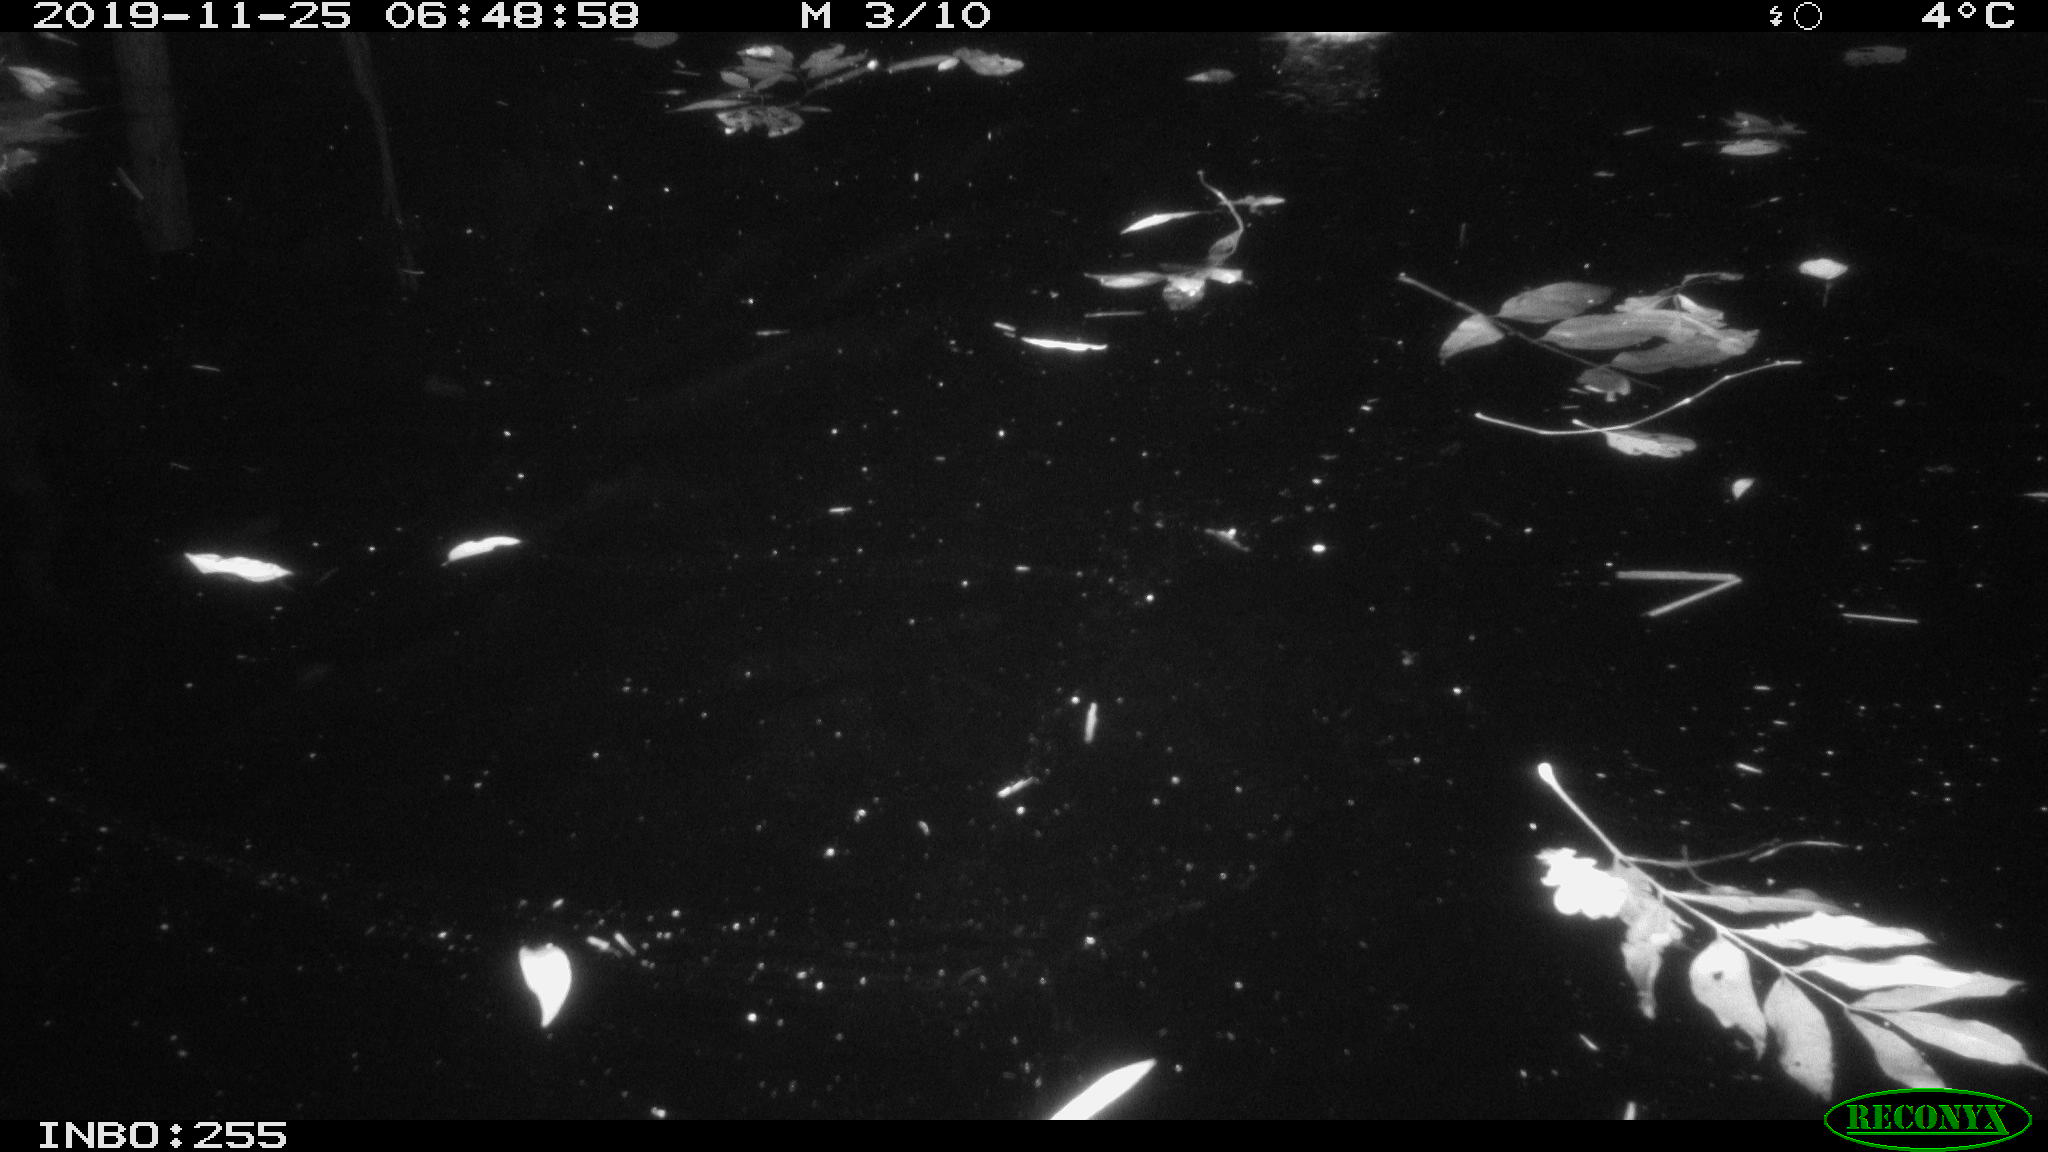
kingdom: Animalia
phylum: Chordata
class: Aves
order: Anseriformes
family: Anatidae
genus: Anas
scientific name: Anas platyrhynchos
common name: Mallard
